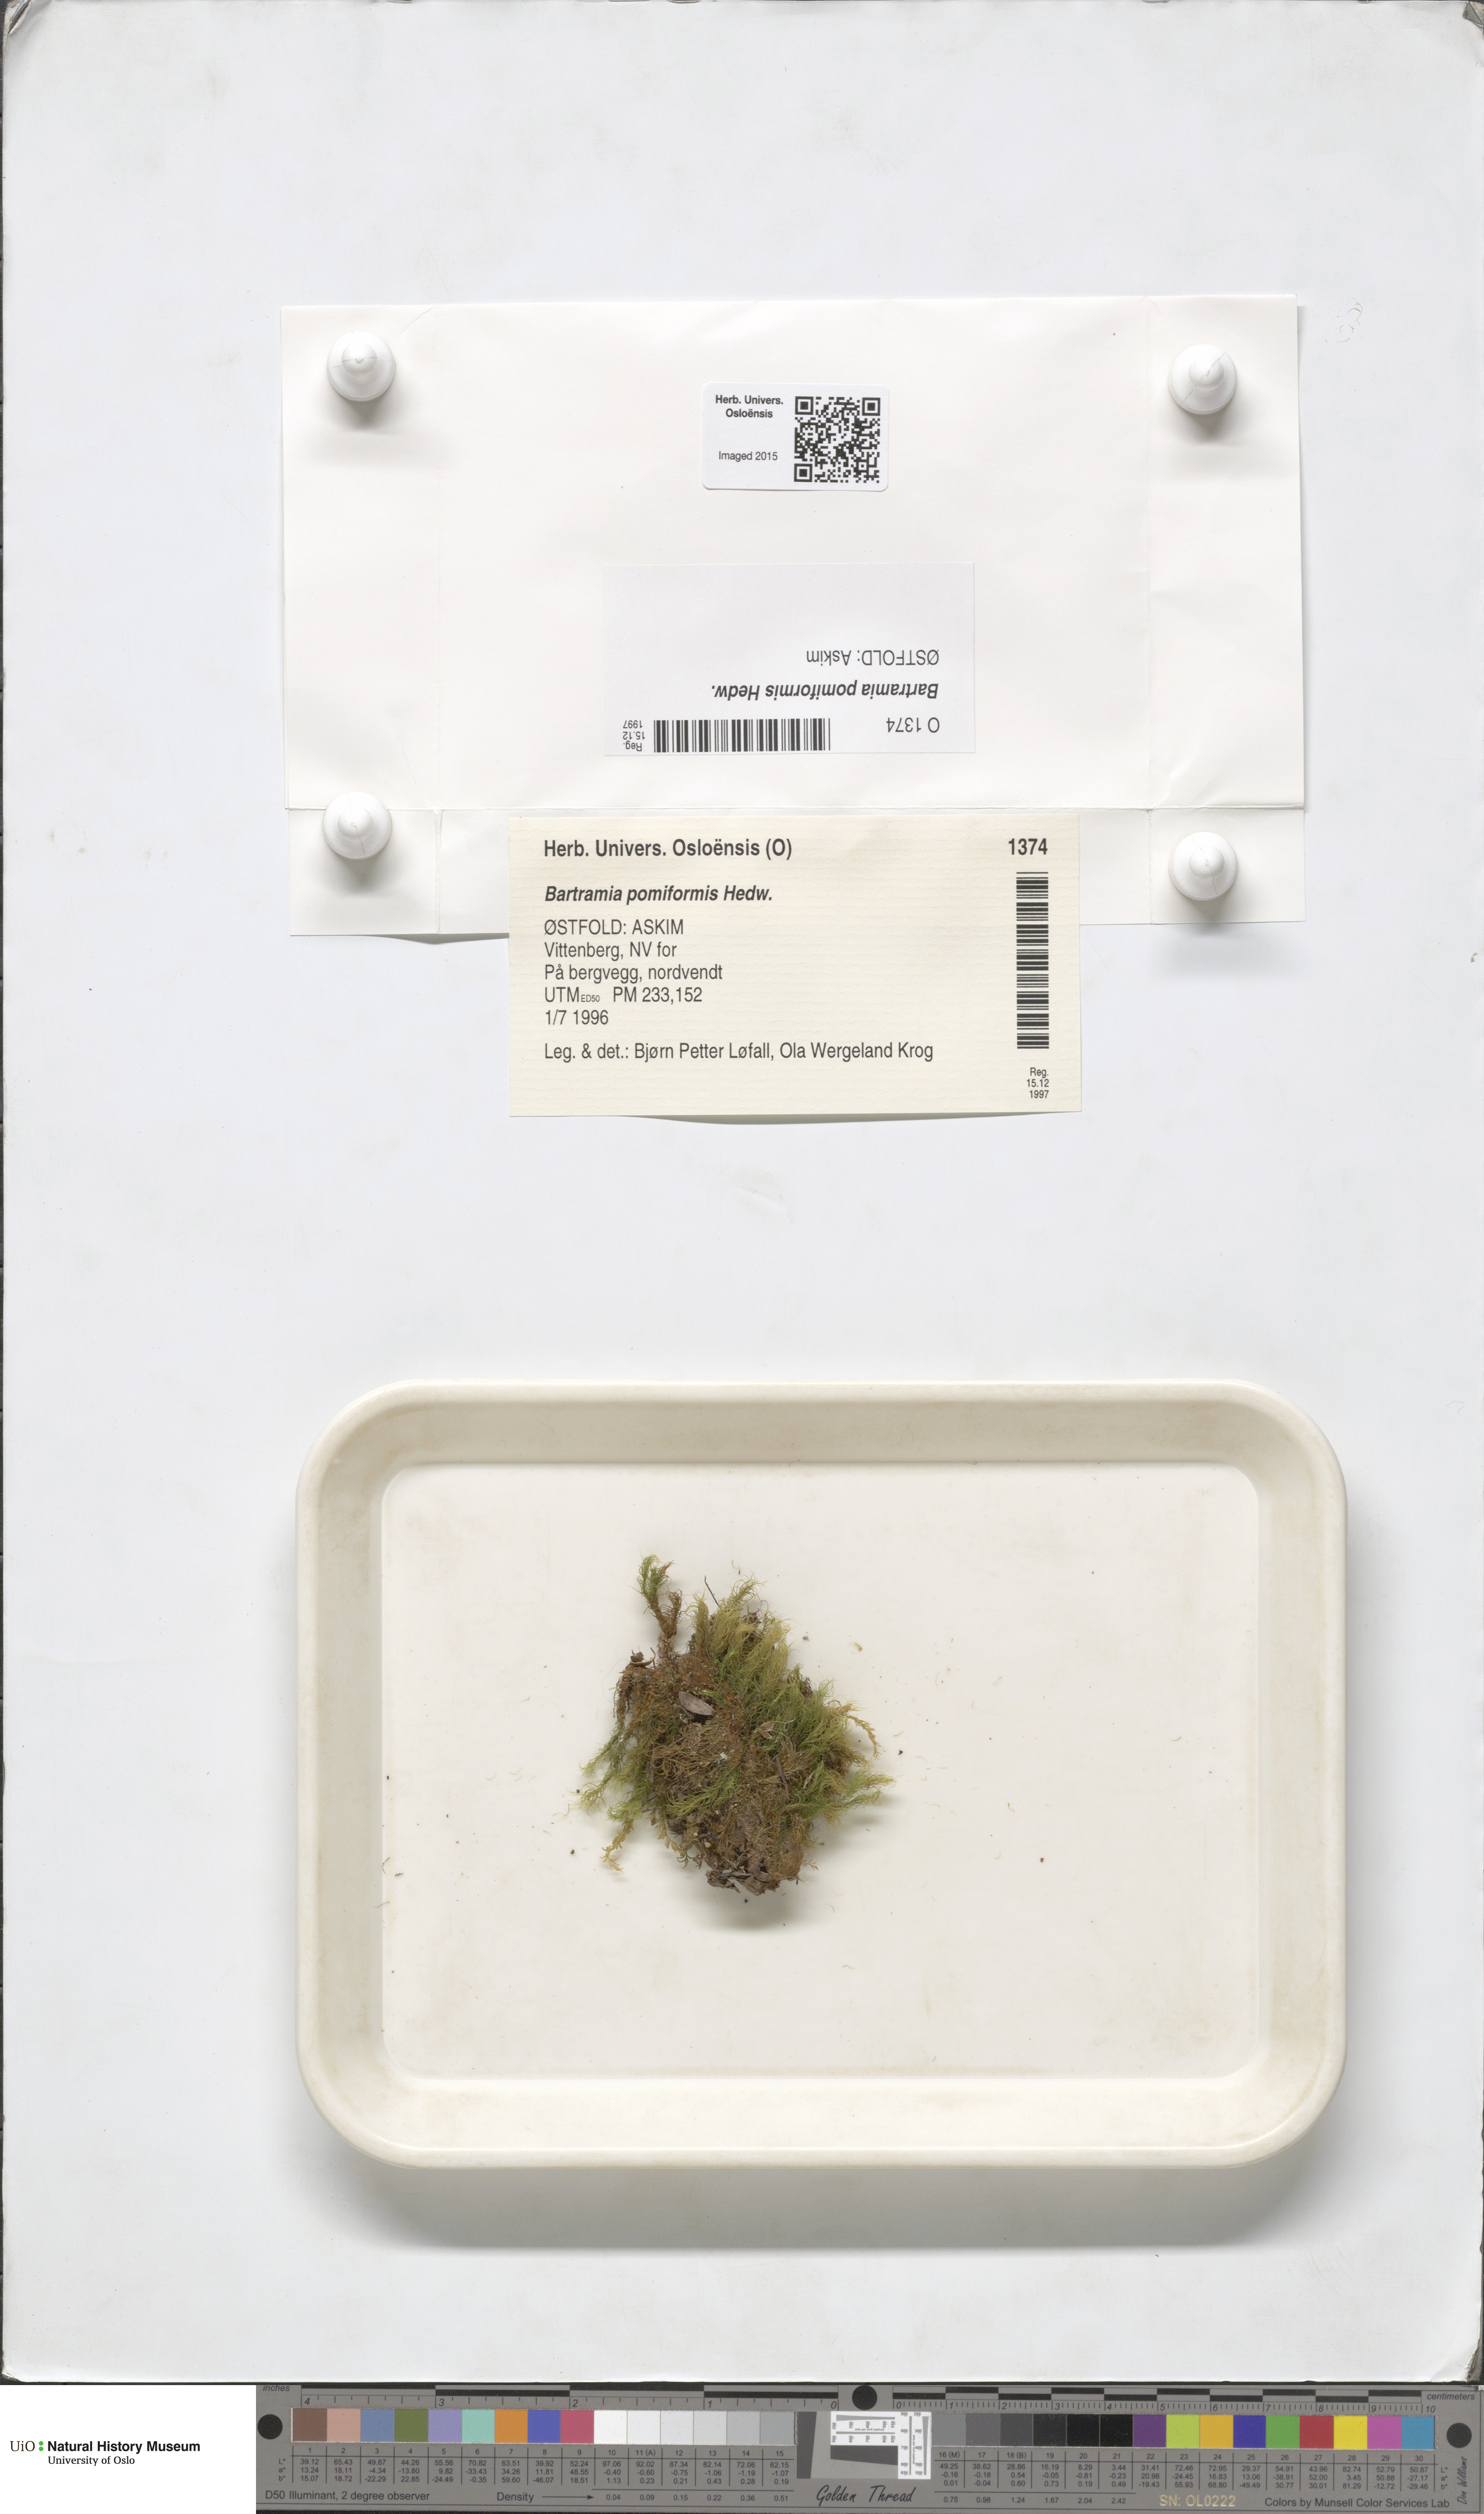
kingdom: Plantae
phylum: Bryophyta
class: Bryopsida
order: Bartramiales
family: Bartramiaceae
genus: Bartramia
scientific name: Bartramia pomiformis
